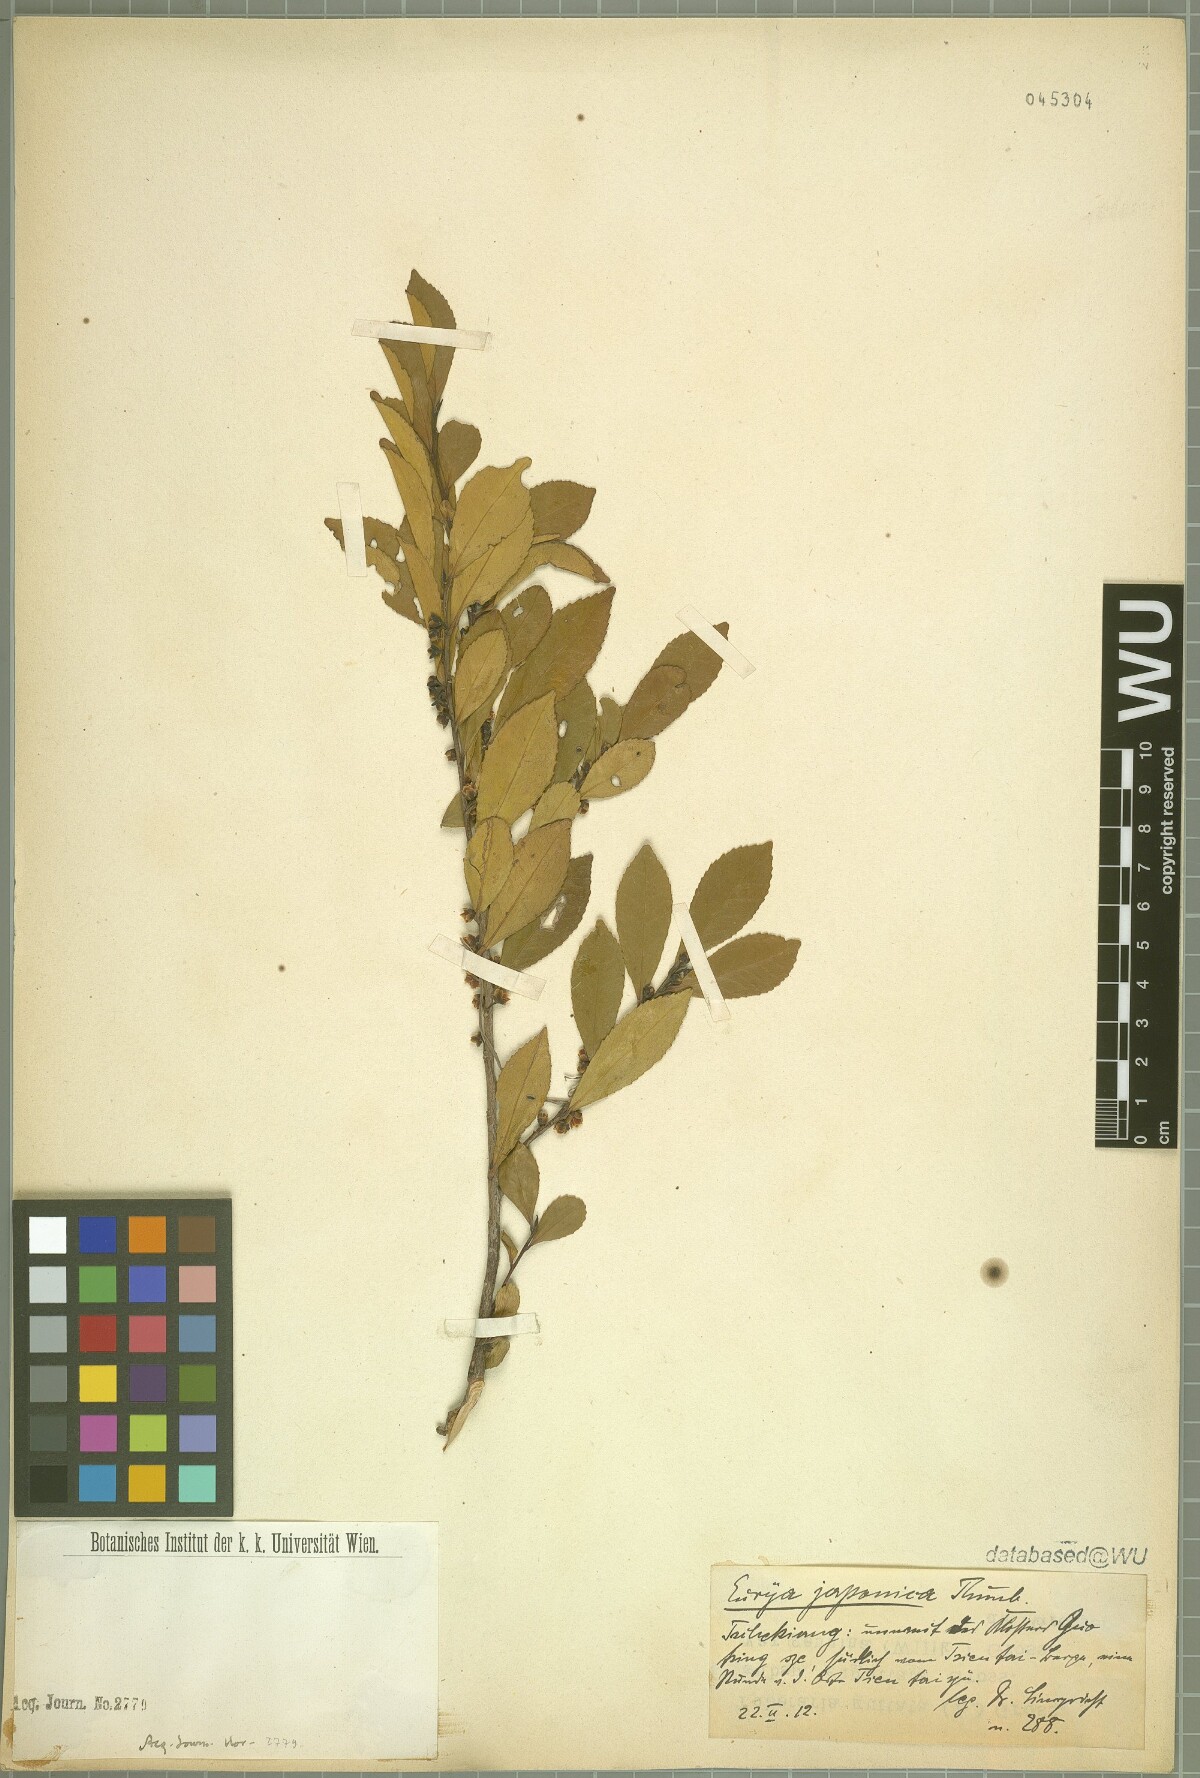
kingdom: Plantae
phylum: Tracheophyta
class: Magnoliopsida
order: Ericales
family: Pentaphylacaceae
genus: Eurya
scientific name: Eurya japonica
